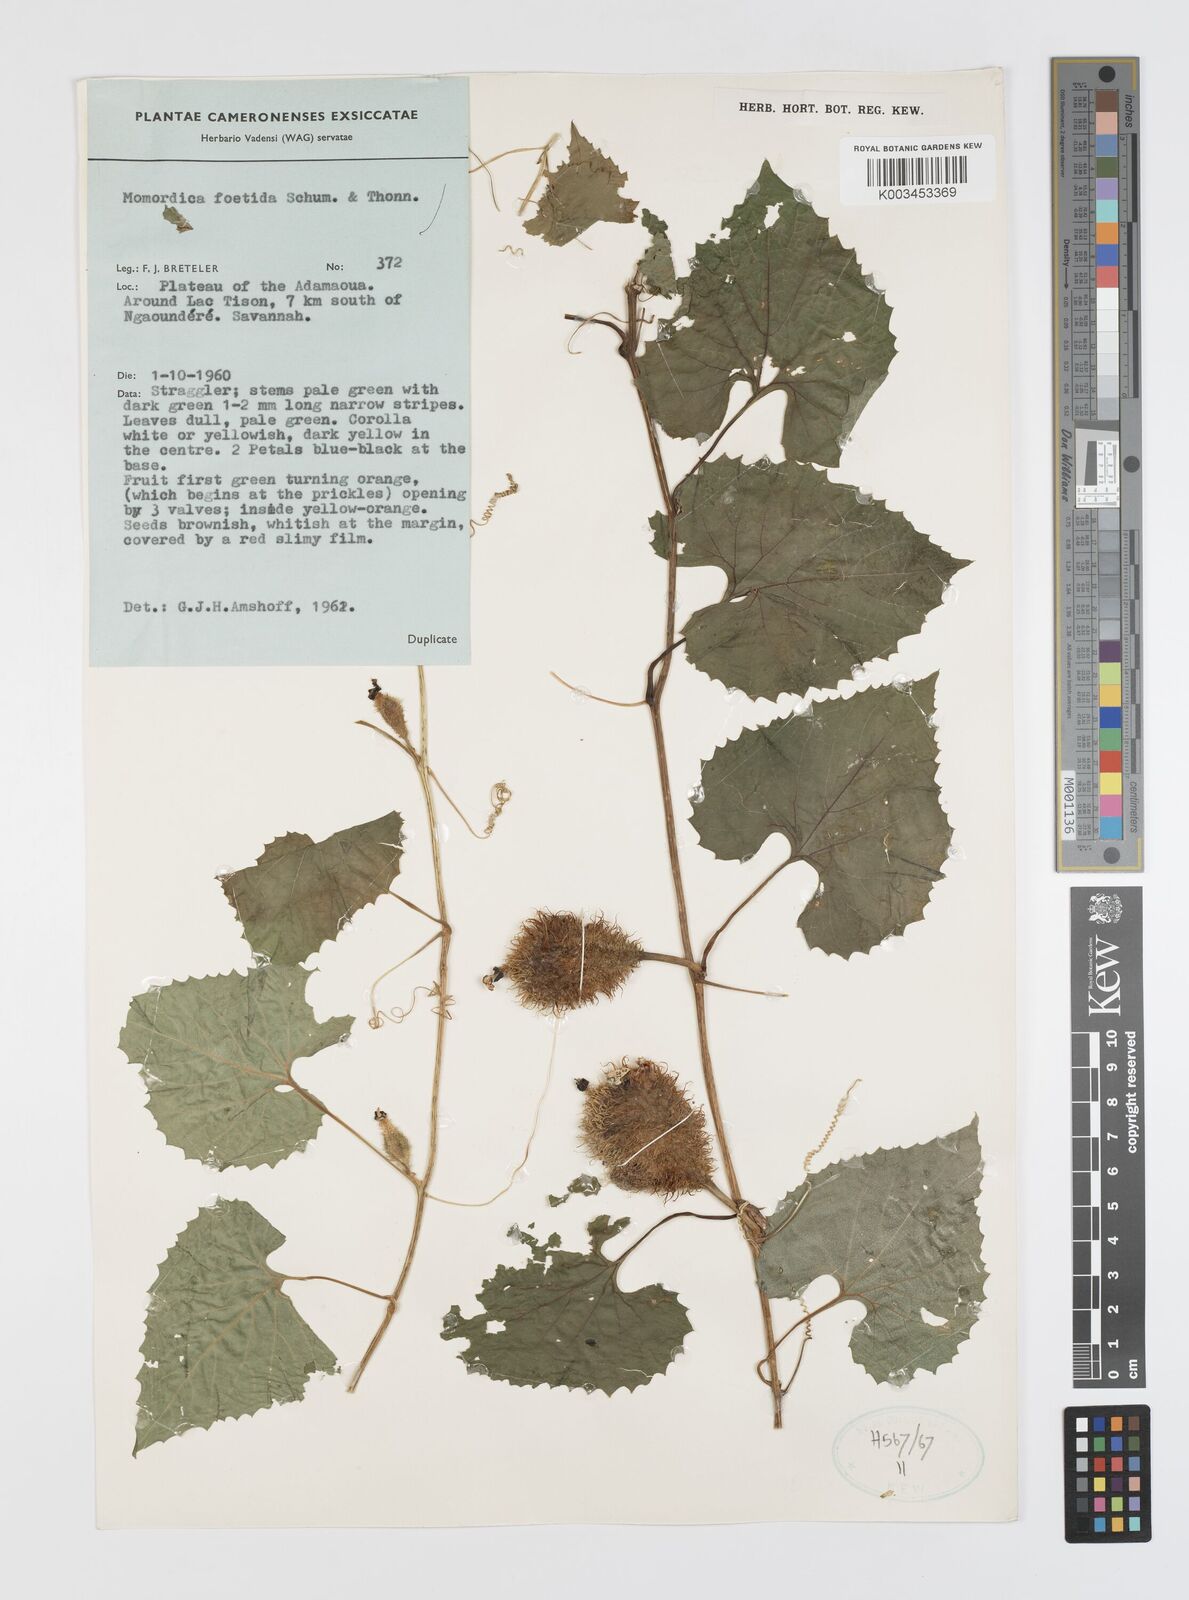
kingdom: Plantae
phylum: Tracheophyta
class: Magnoliopsida
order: Cucurbitales
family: Cucurbitaceae
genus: Momordica
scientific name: Momordica foetida
